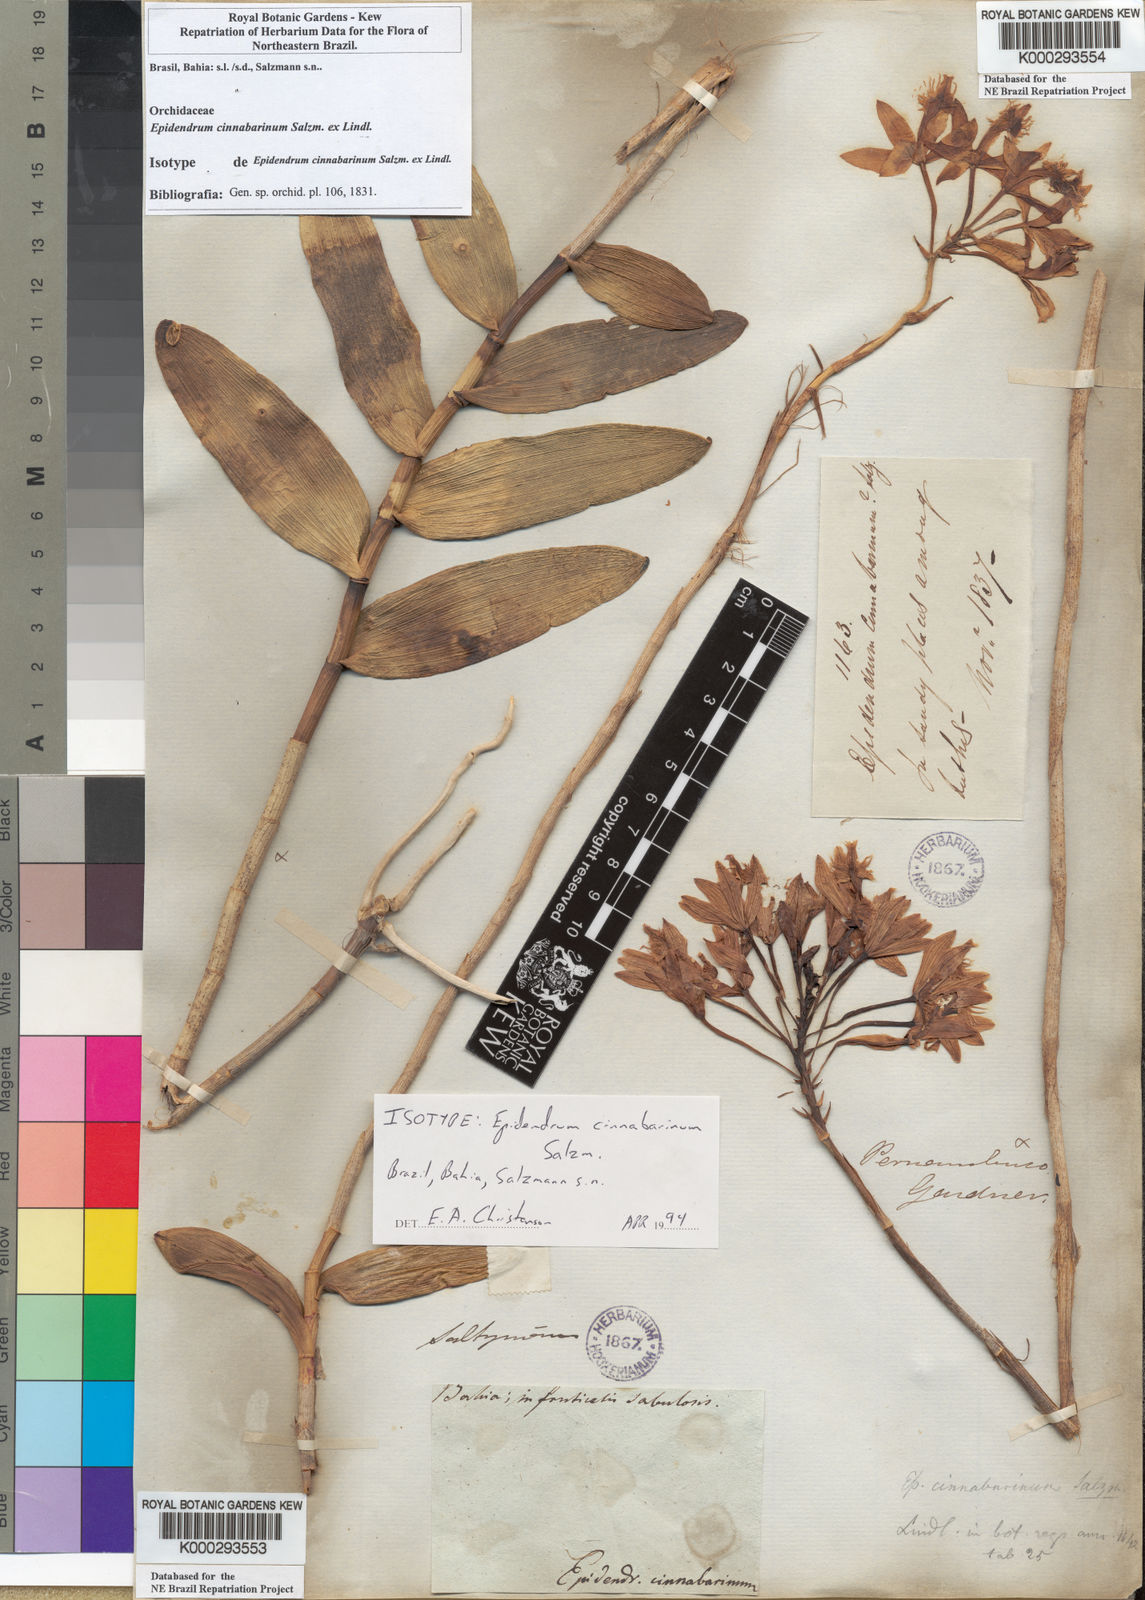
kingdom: Plantae
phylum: Tracheophyta
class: Liliopsida
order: Asparagales
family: Orchidaceae
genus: Epidendrum
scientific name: Epidendrum cinnabarinum
